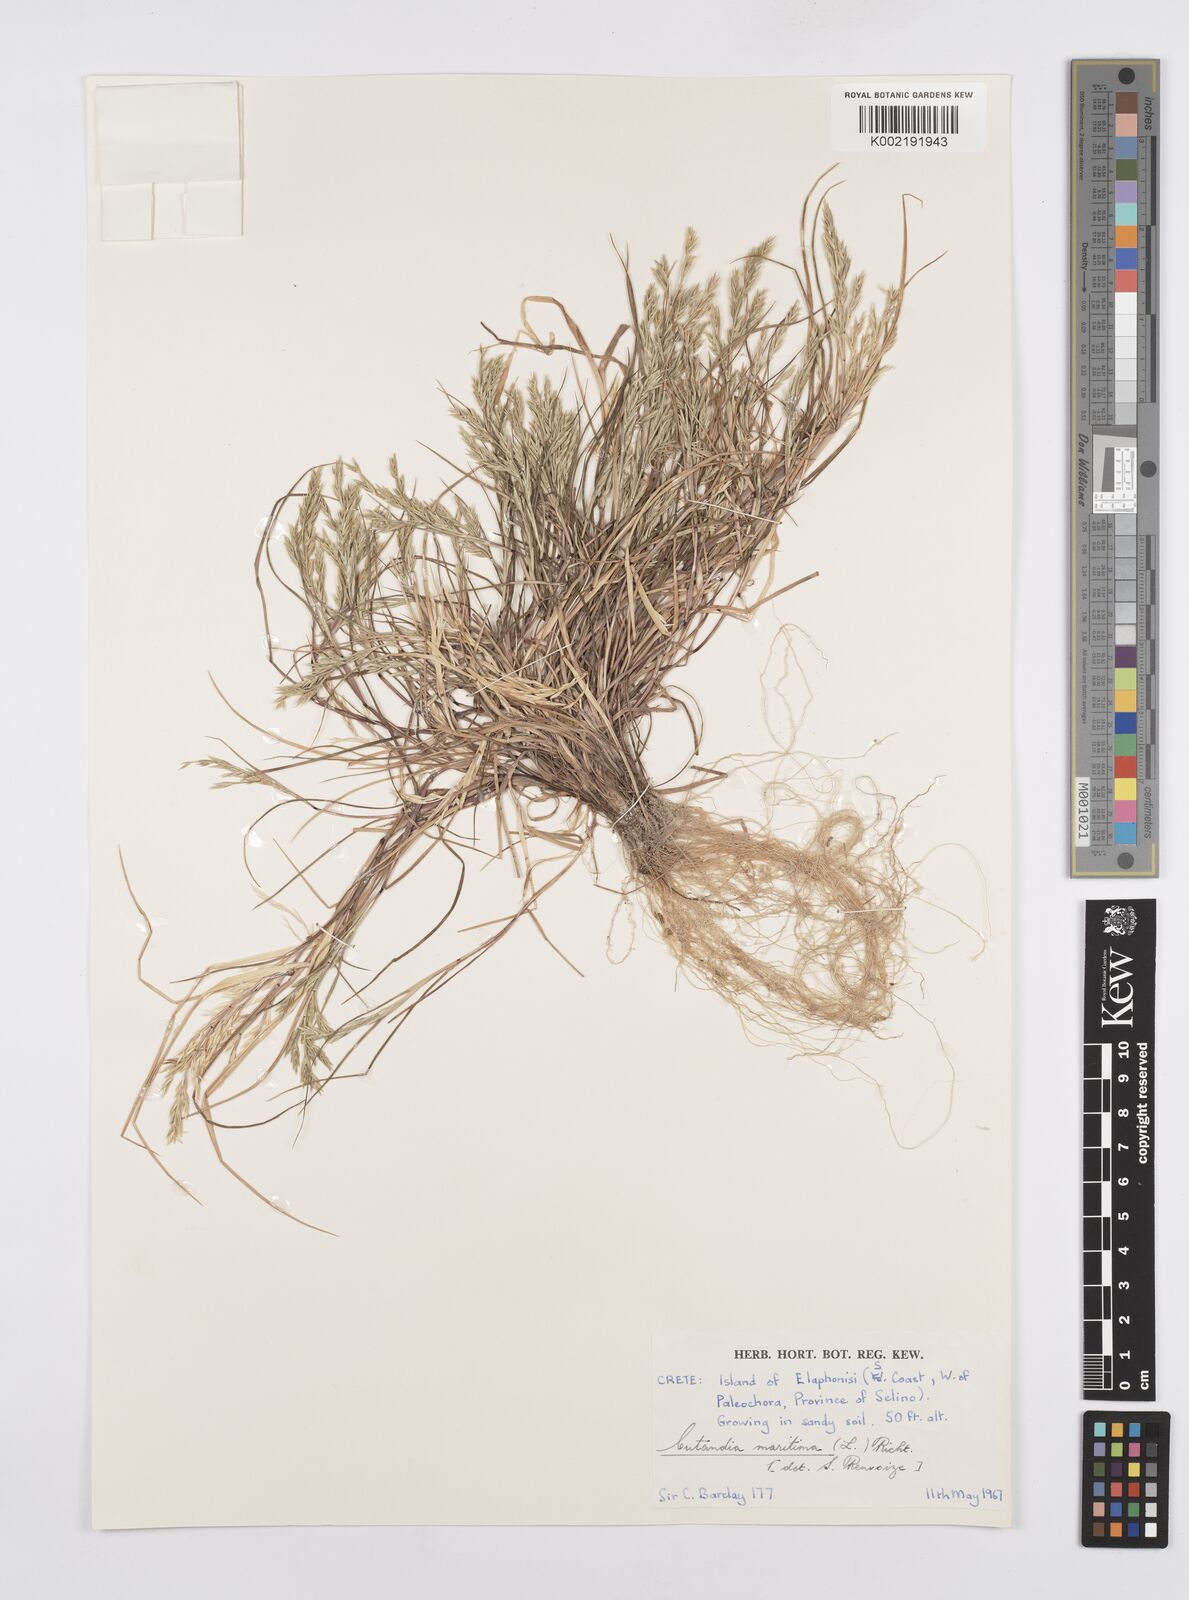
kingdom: Plantae
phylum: Tracheophyta
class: Liliopsida
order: Poales
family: Poaceae
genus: Cutandia
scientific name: Cutandia maritima
